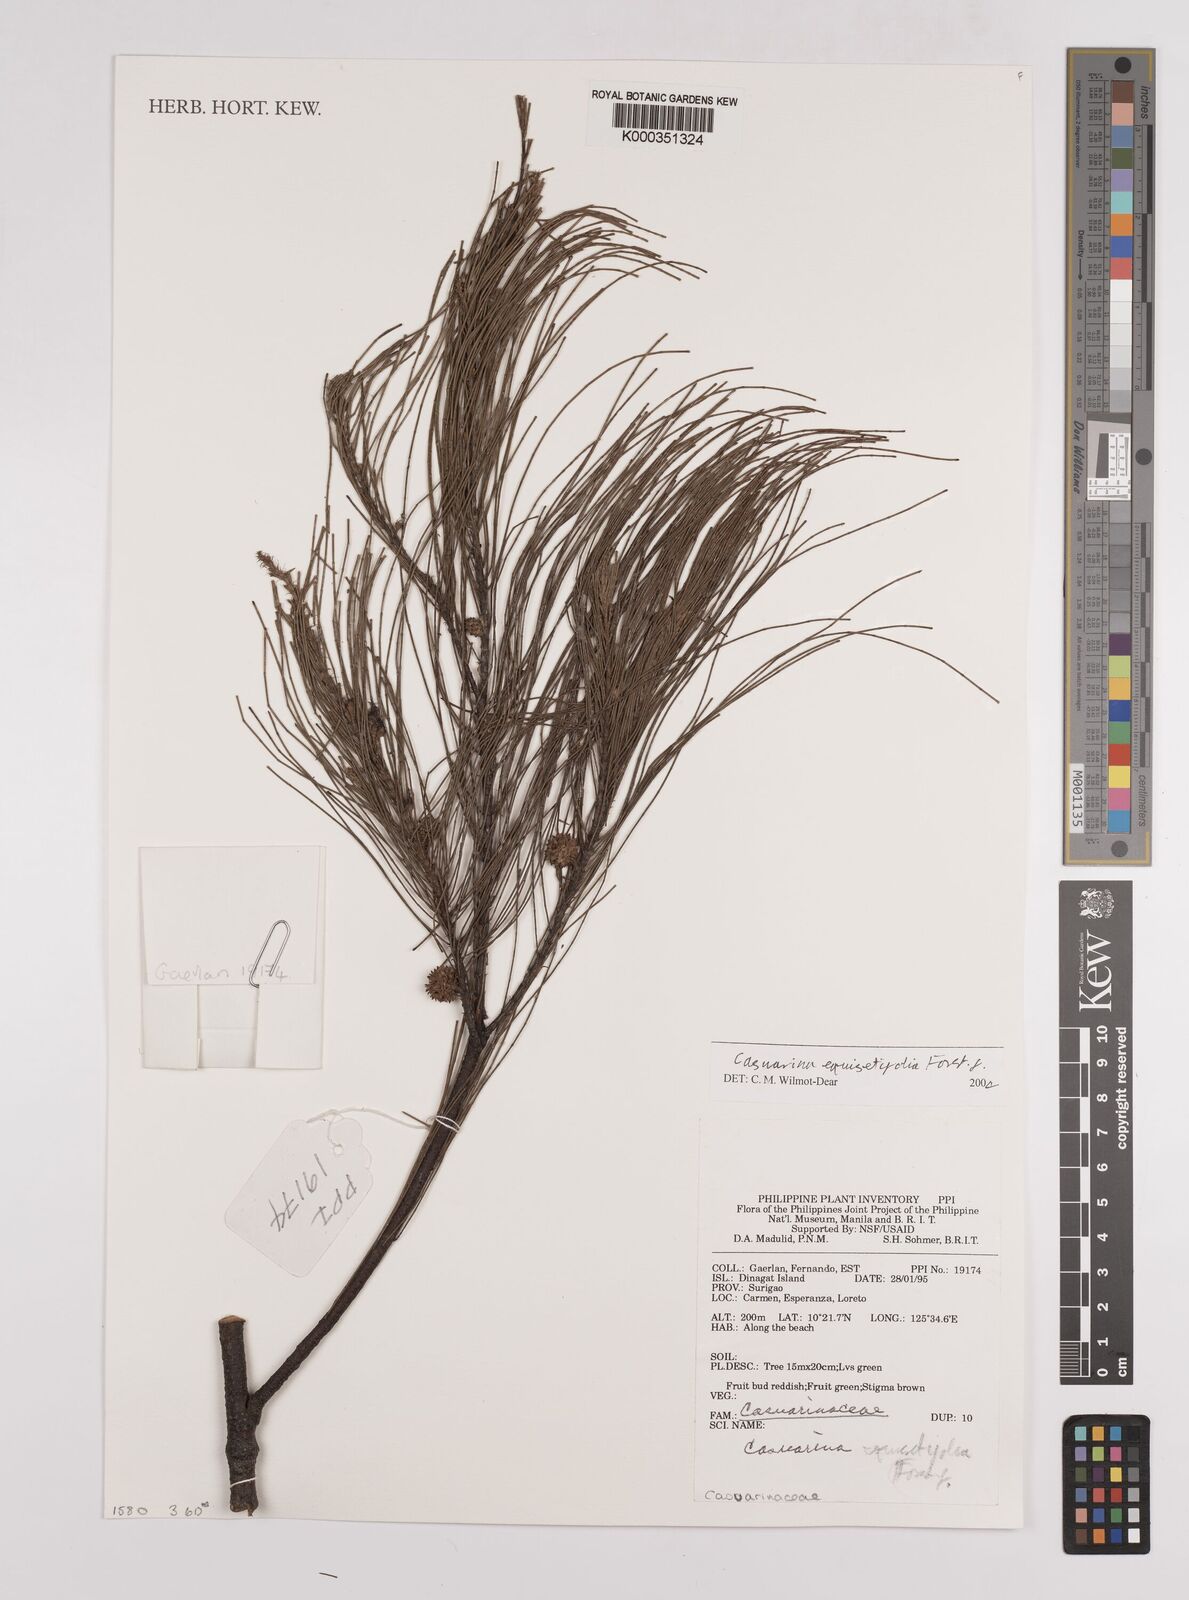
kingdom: Plantae
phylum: Tracheophyta
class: Magnoliopsida
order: Fagales
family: Casuarinaceae
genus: Casuarina
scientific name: Casuarina
